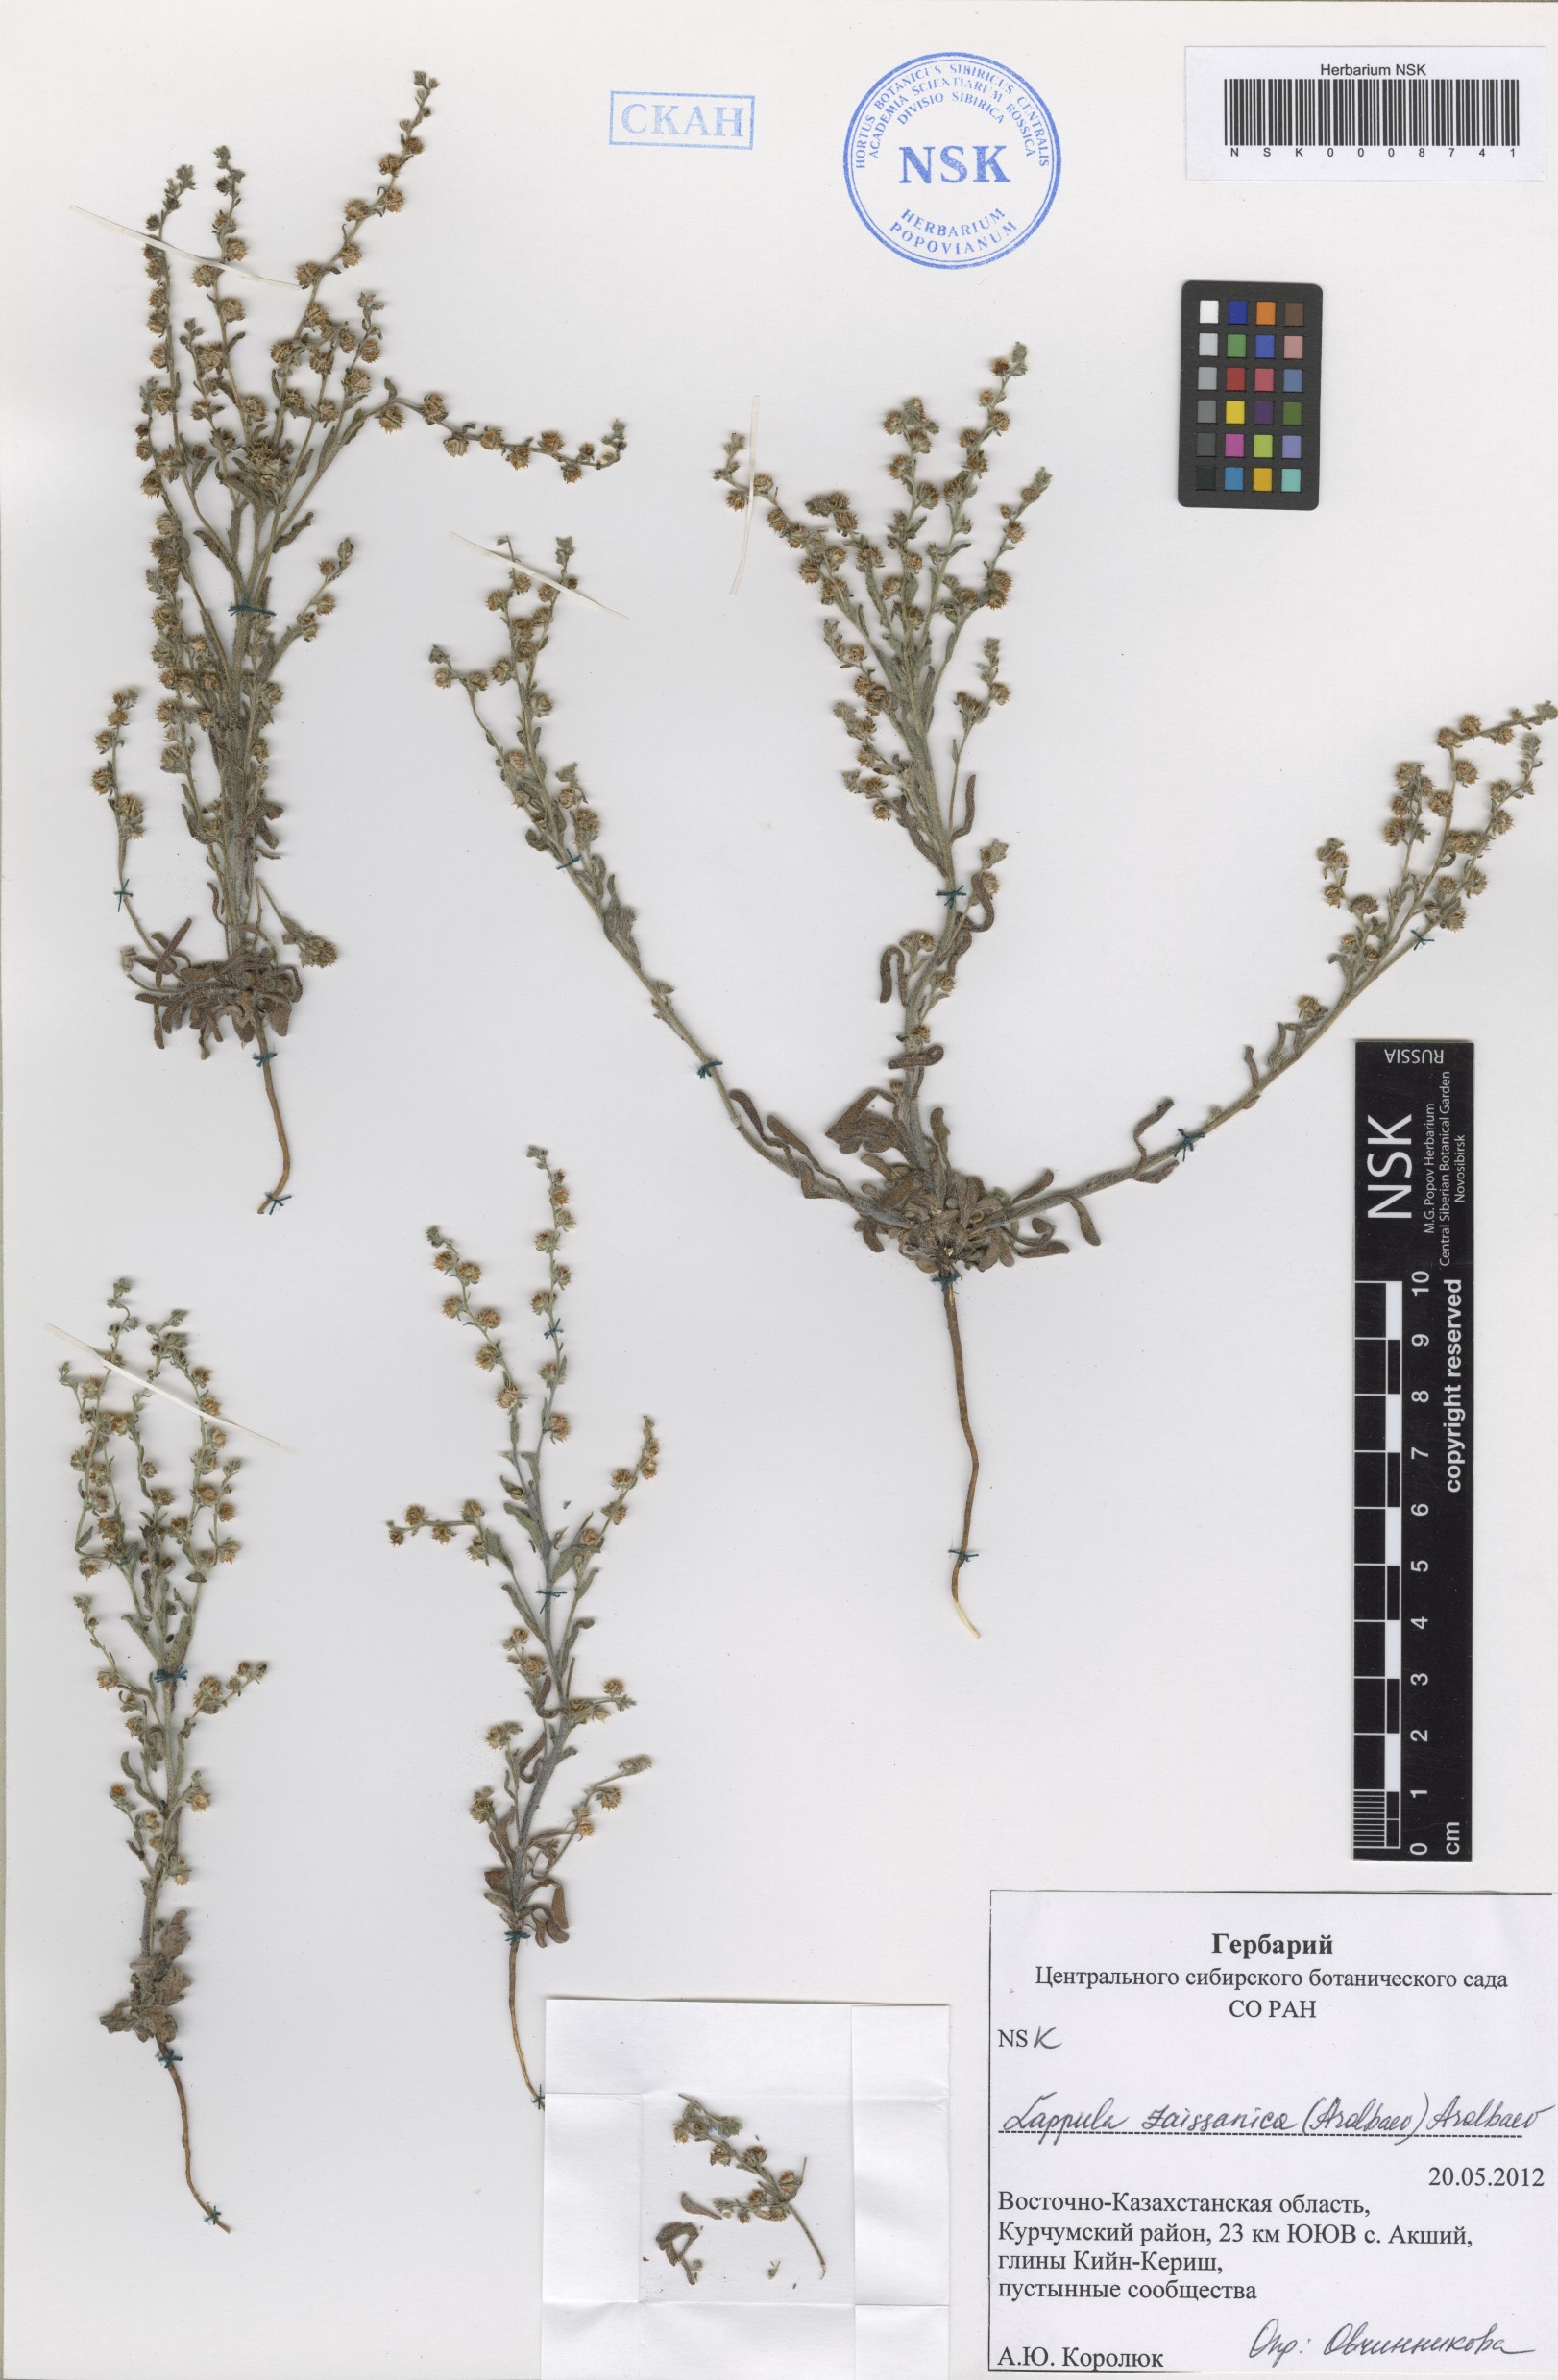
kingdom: Plantae
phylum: Tracheophyta
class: Magnoliopsida
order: Boraginales
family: Boraginaceae
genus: Lappula
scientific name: Lappula zaissanica
